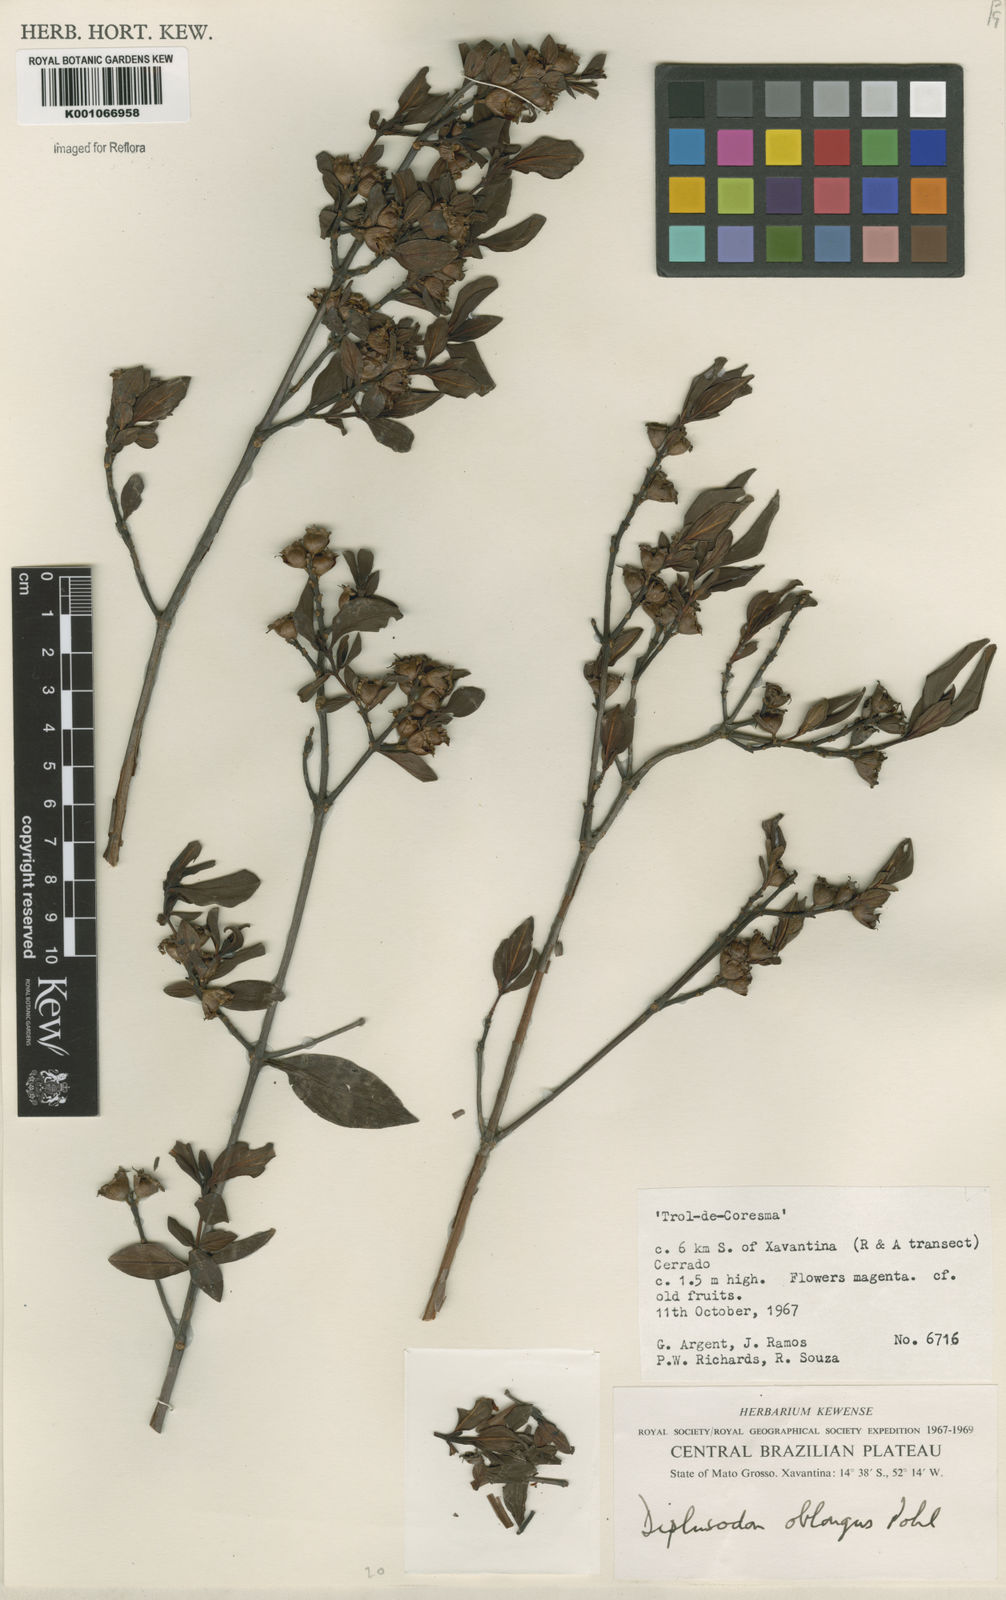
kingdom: Plantae
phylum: Tracheophyta
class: Magnoliopsida
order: Myrtales
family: Lythraceae
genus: Diplusodon
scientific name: Diplusodon oblongus
